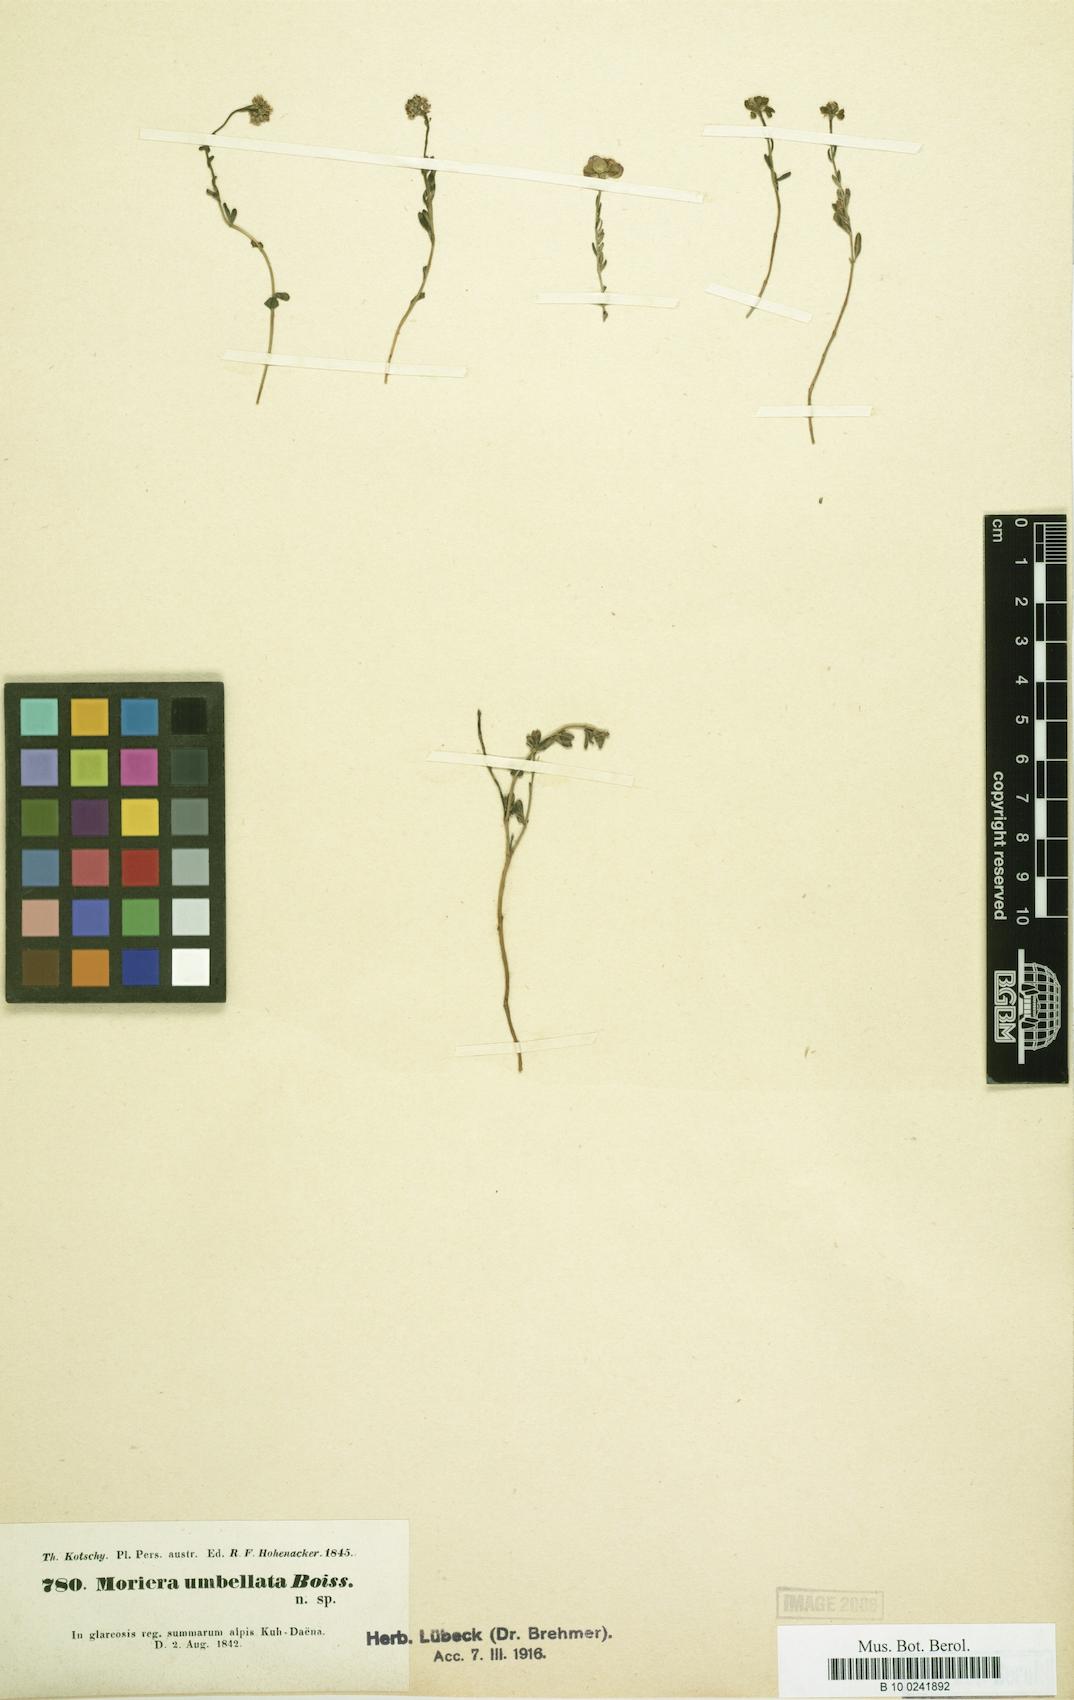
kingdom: Plantae
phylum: Tracheophyta
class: Magnoliopsida
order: Brassicales
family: Brassicaceae
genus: Aethionema
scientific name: Aethionema umbellatum
